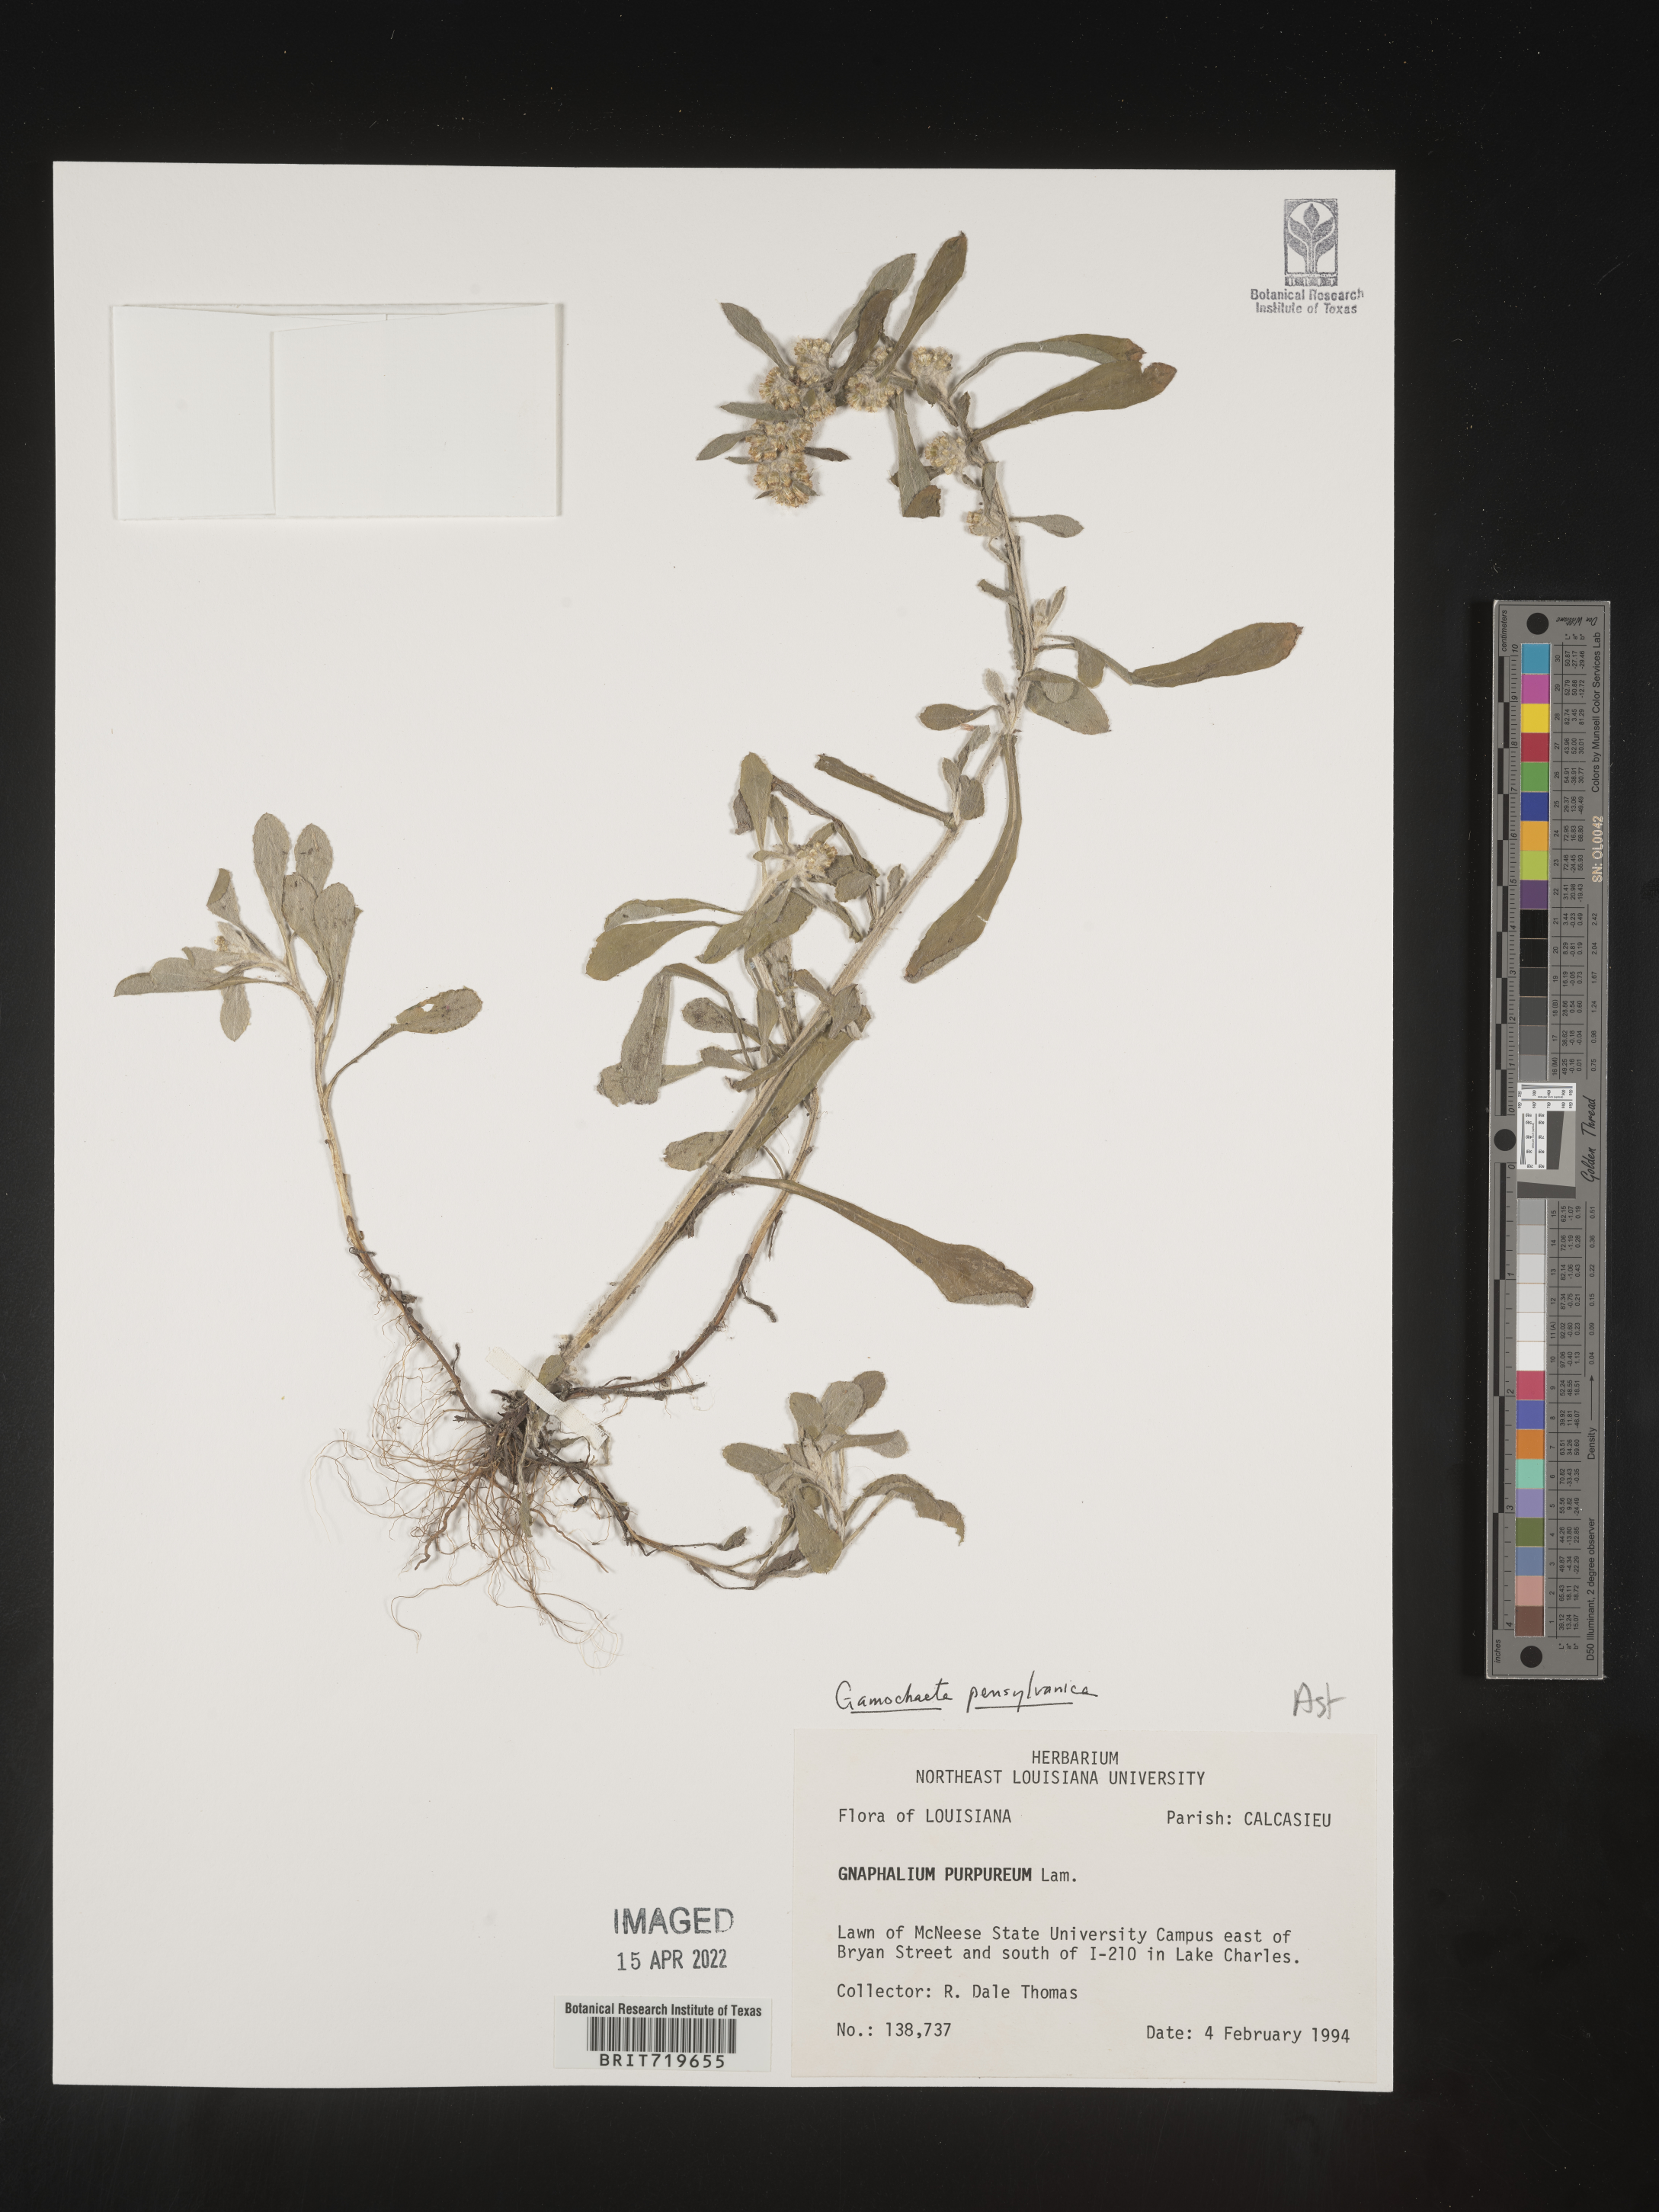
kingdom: Plantae
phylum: Tracheophyta
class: Magnoliopsida
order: Asterales
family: Asteraceae
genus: Gamochaeta
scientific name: Gamochaeta pensylvanica
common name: Pennsylvania everlasting
